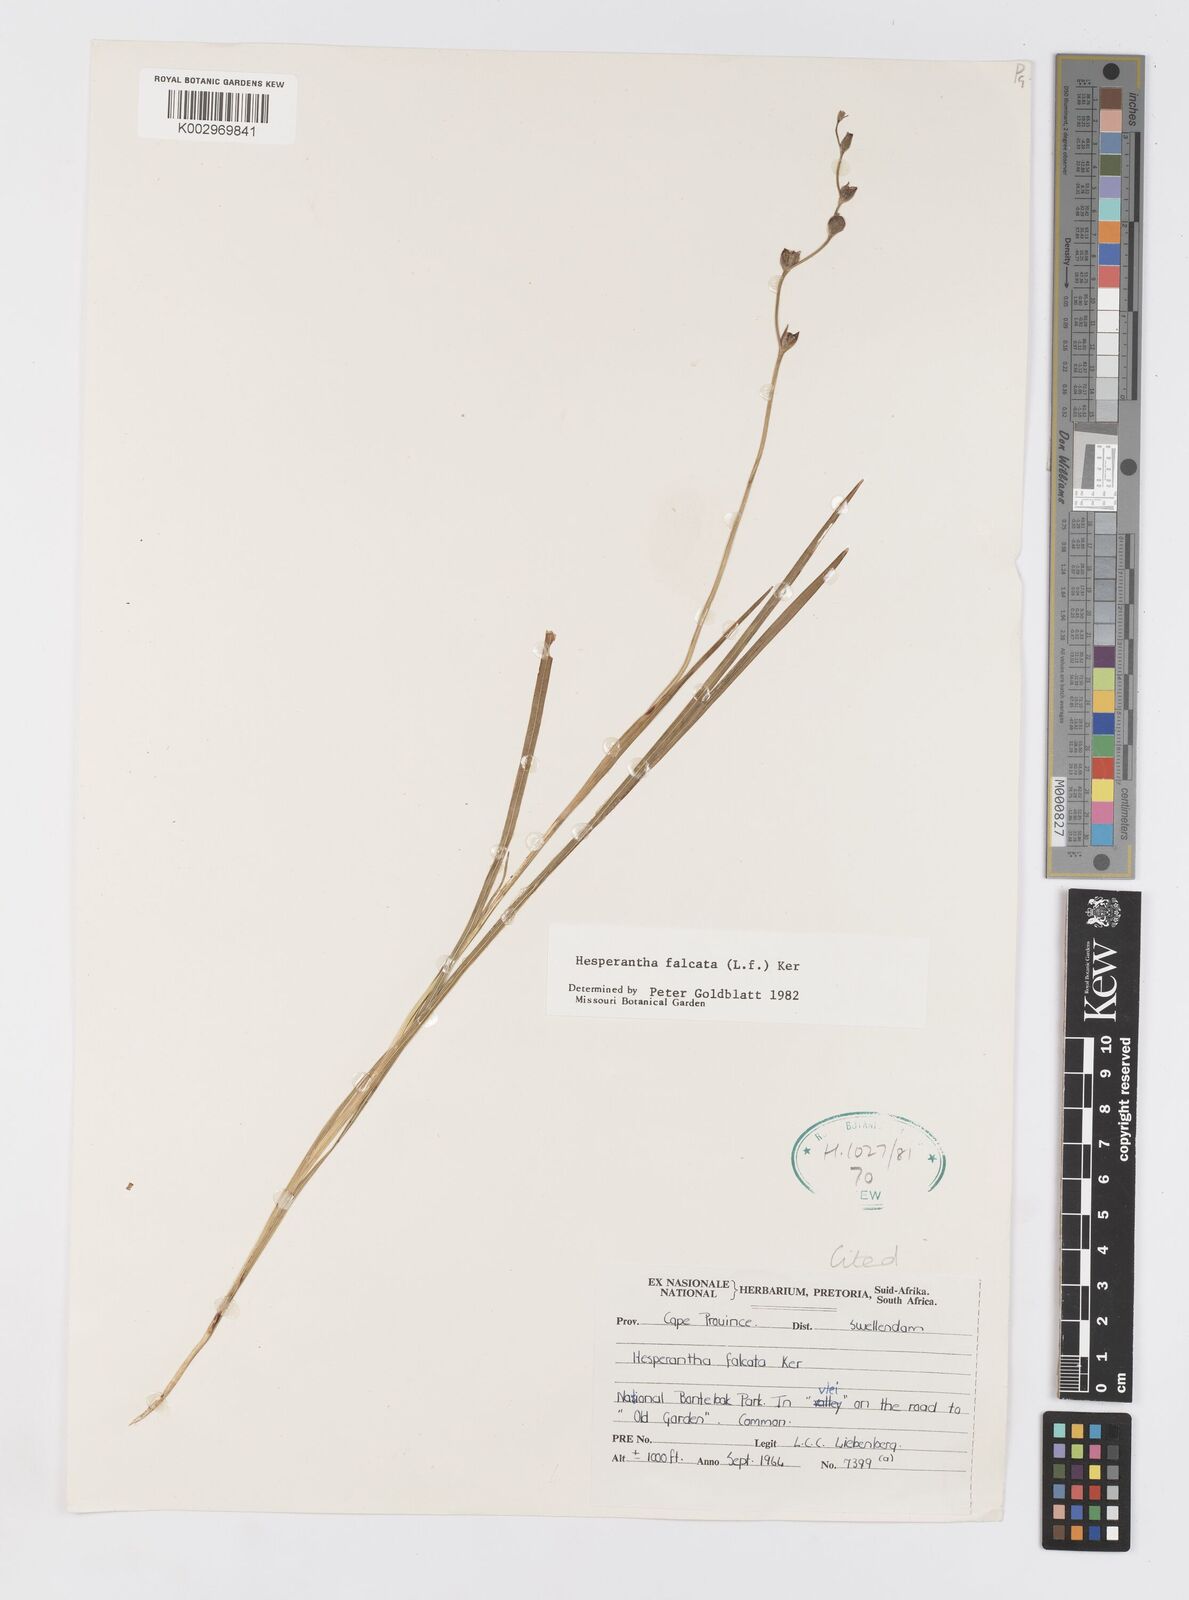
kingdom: Plantae
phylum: Tracheophyta
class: Liliopsida
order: Asparagales
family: Iridaceae
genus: Hesperantha
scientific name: Hesperantha falcata
